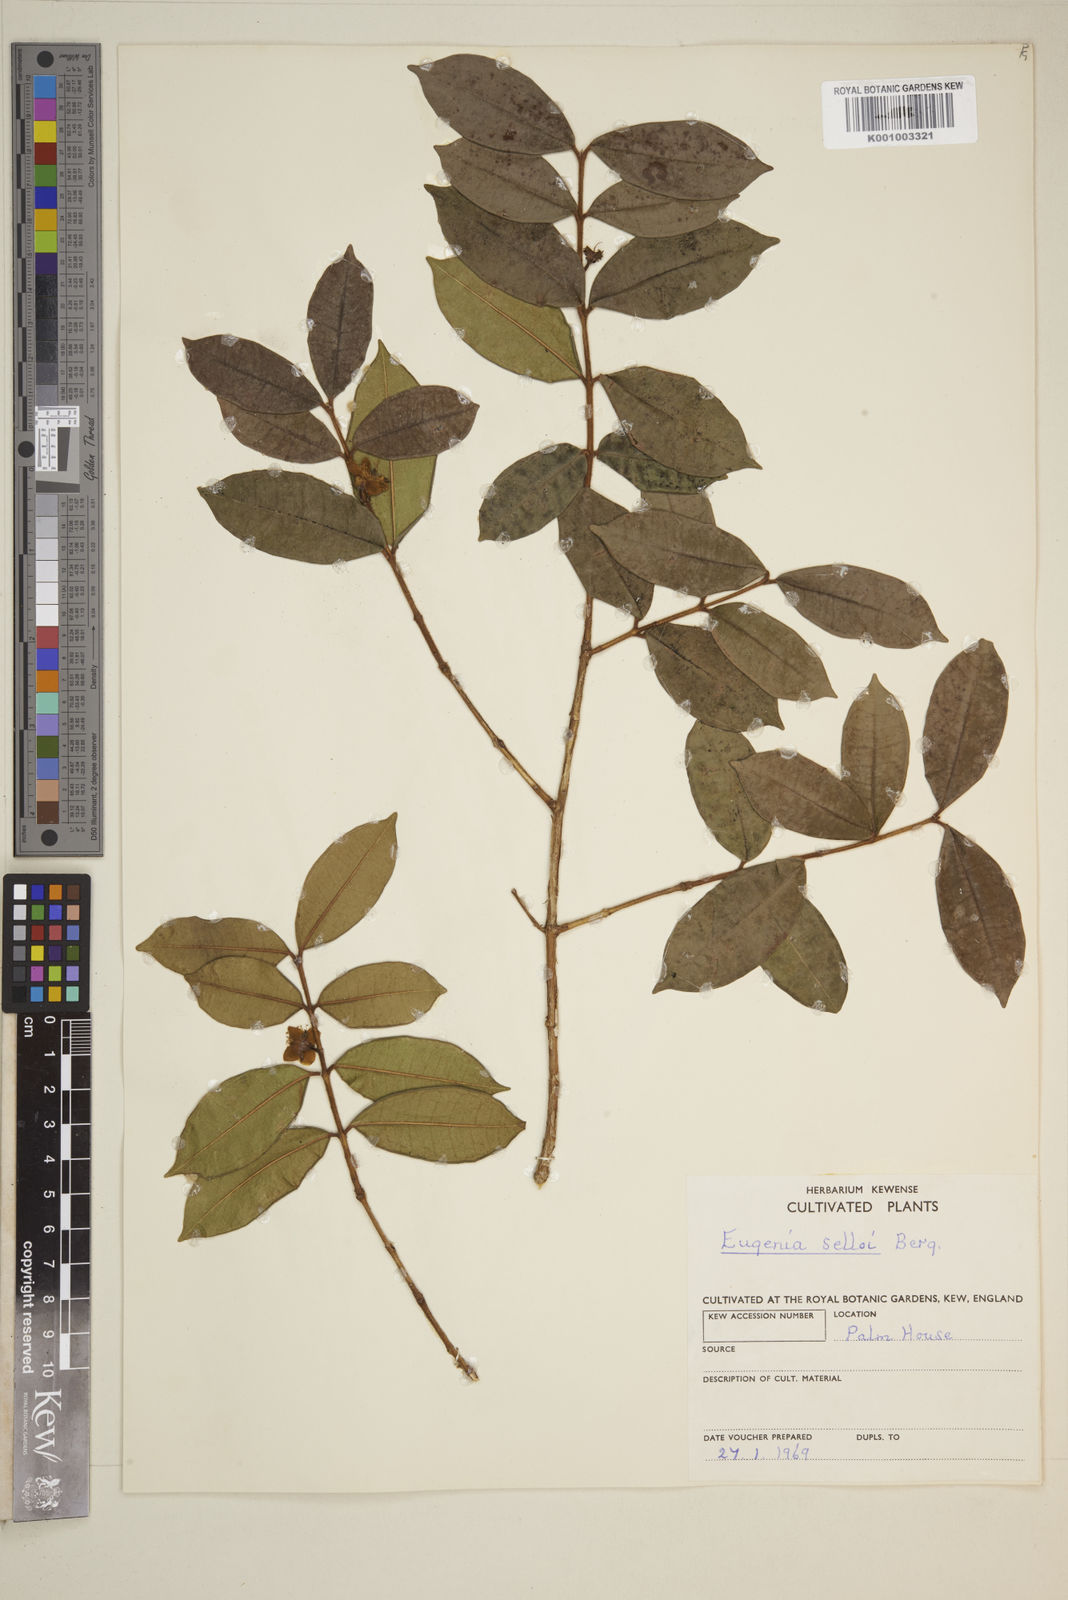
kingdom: Plantae
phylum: Tracheophyta
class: Magnoliopsida
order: Myrtales
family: Myrtaceae
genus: Eugenia
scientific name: Eugenia selloi
